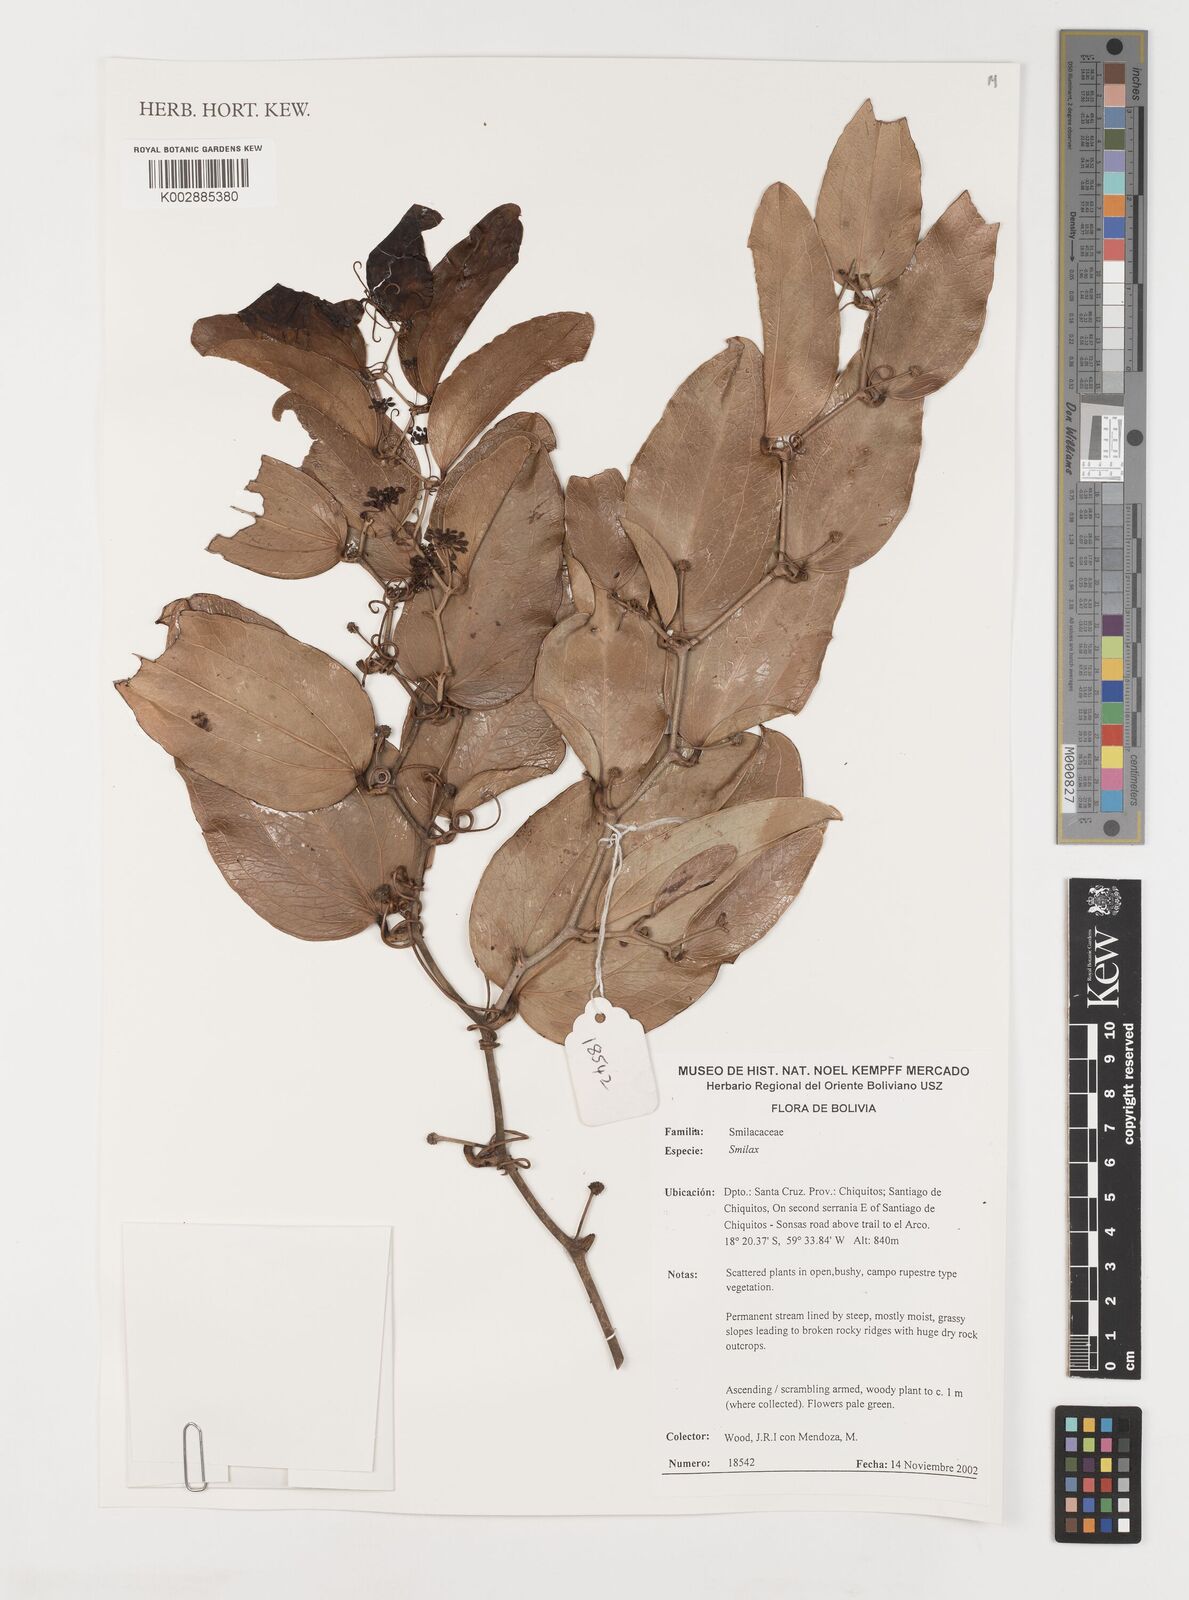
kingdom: Plantae
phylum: Tracheophyta
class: Liliopsida
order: Liliales
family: Smilacaceae
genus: Smilax
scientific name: Smilax
